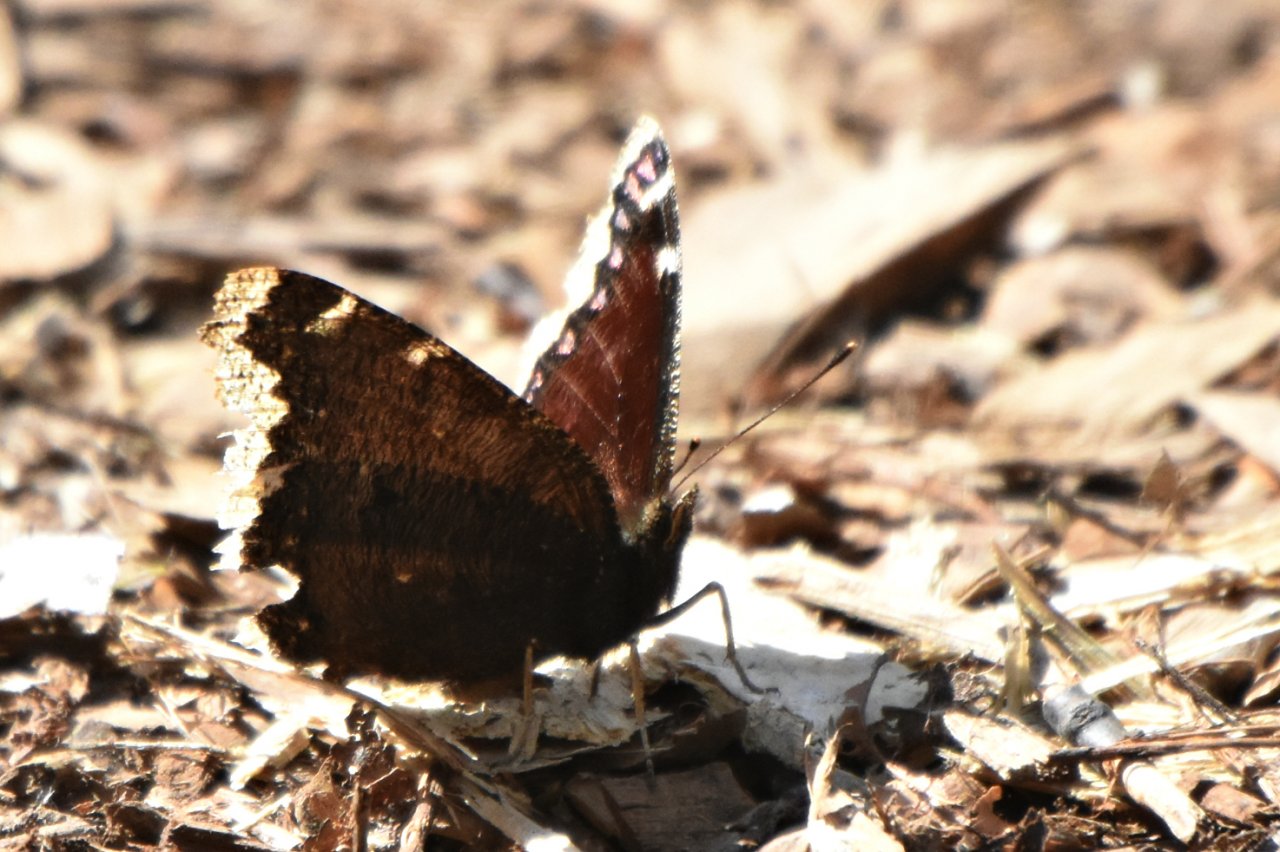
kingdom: Animalia
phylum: Arthropoda
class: Insecta
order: Lepidoptera
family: Nymphalidae
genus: Nymphalis
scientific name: Nymphalis antiopa
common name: Mourning Cloak
